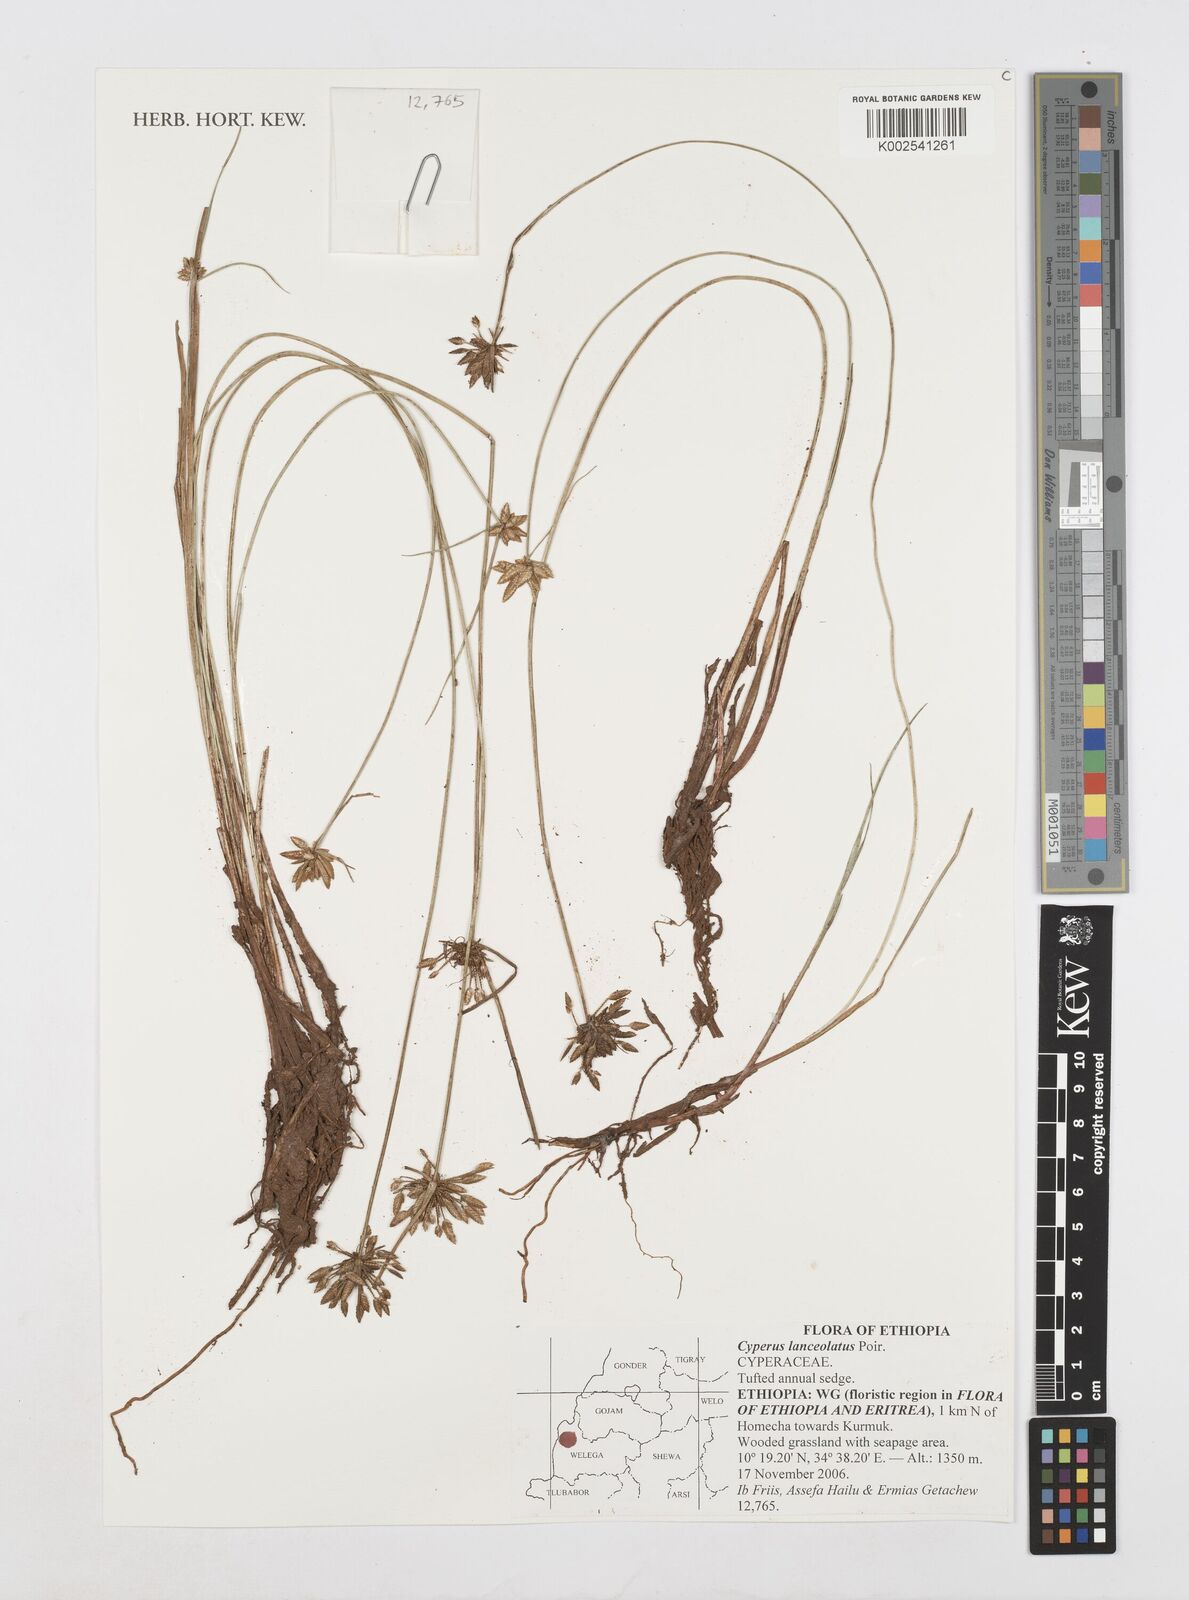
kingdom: Plantae
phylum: Tracheophyta
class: Liliopsida
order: Poales
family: Cyperaceae
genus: Cyperus
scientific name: Cyperus lanceolatus
